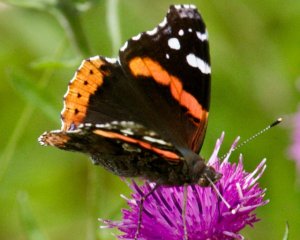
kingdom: Animalia
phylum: Arthropoda
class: Insecta
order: Lepidoptera
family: Nymphalidae
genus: Vanessa
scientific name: Vanessa atalanta
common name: Red Admiral
